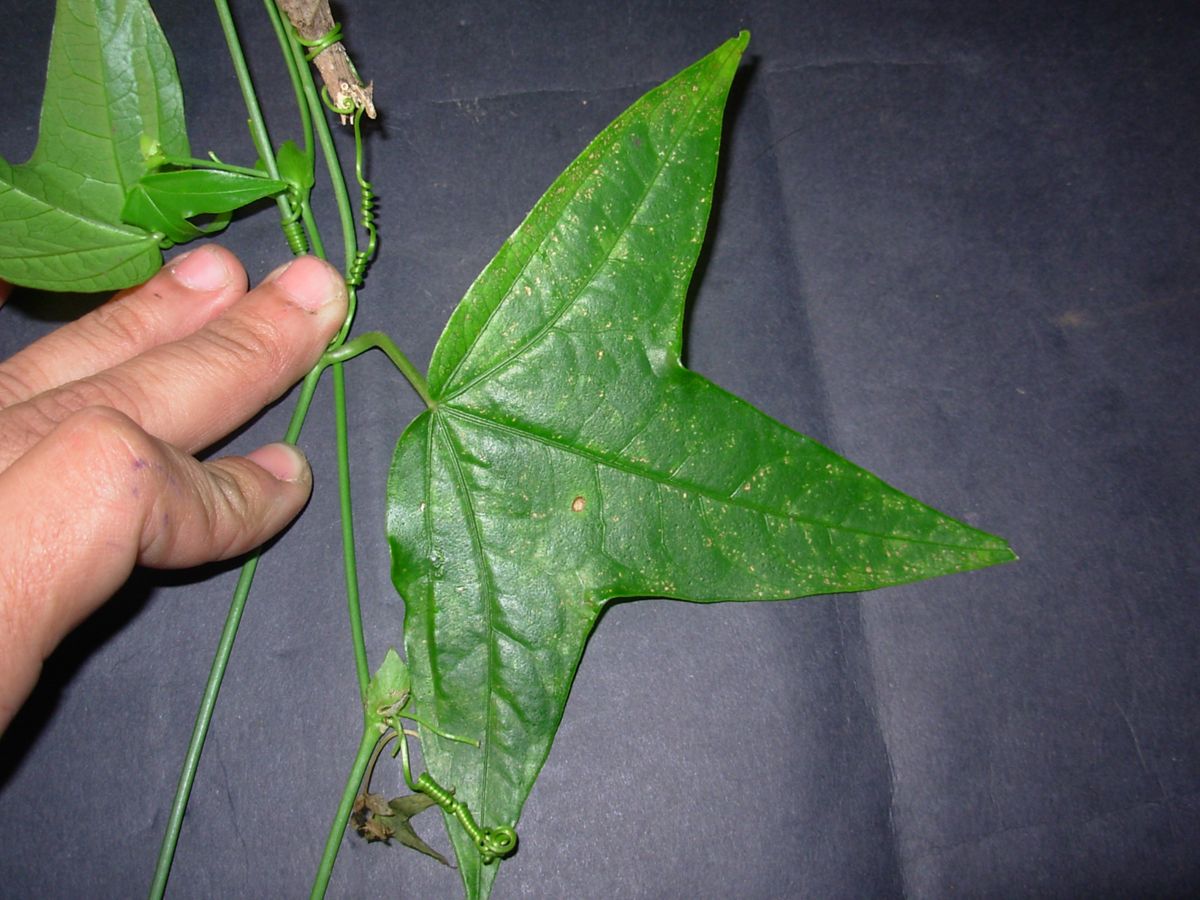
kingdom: Plantae
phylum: Tracheophyta
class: Magnoliopsida
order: Malpighiales
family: Passifloraceae
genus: Passiflora
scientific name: Passiflora eglandulosa
